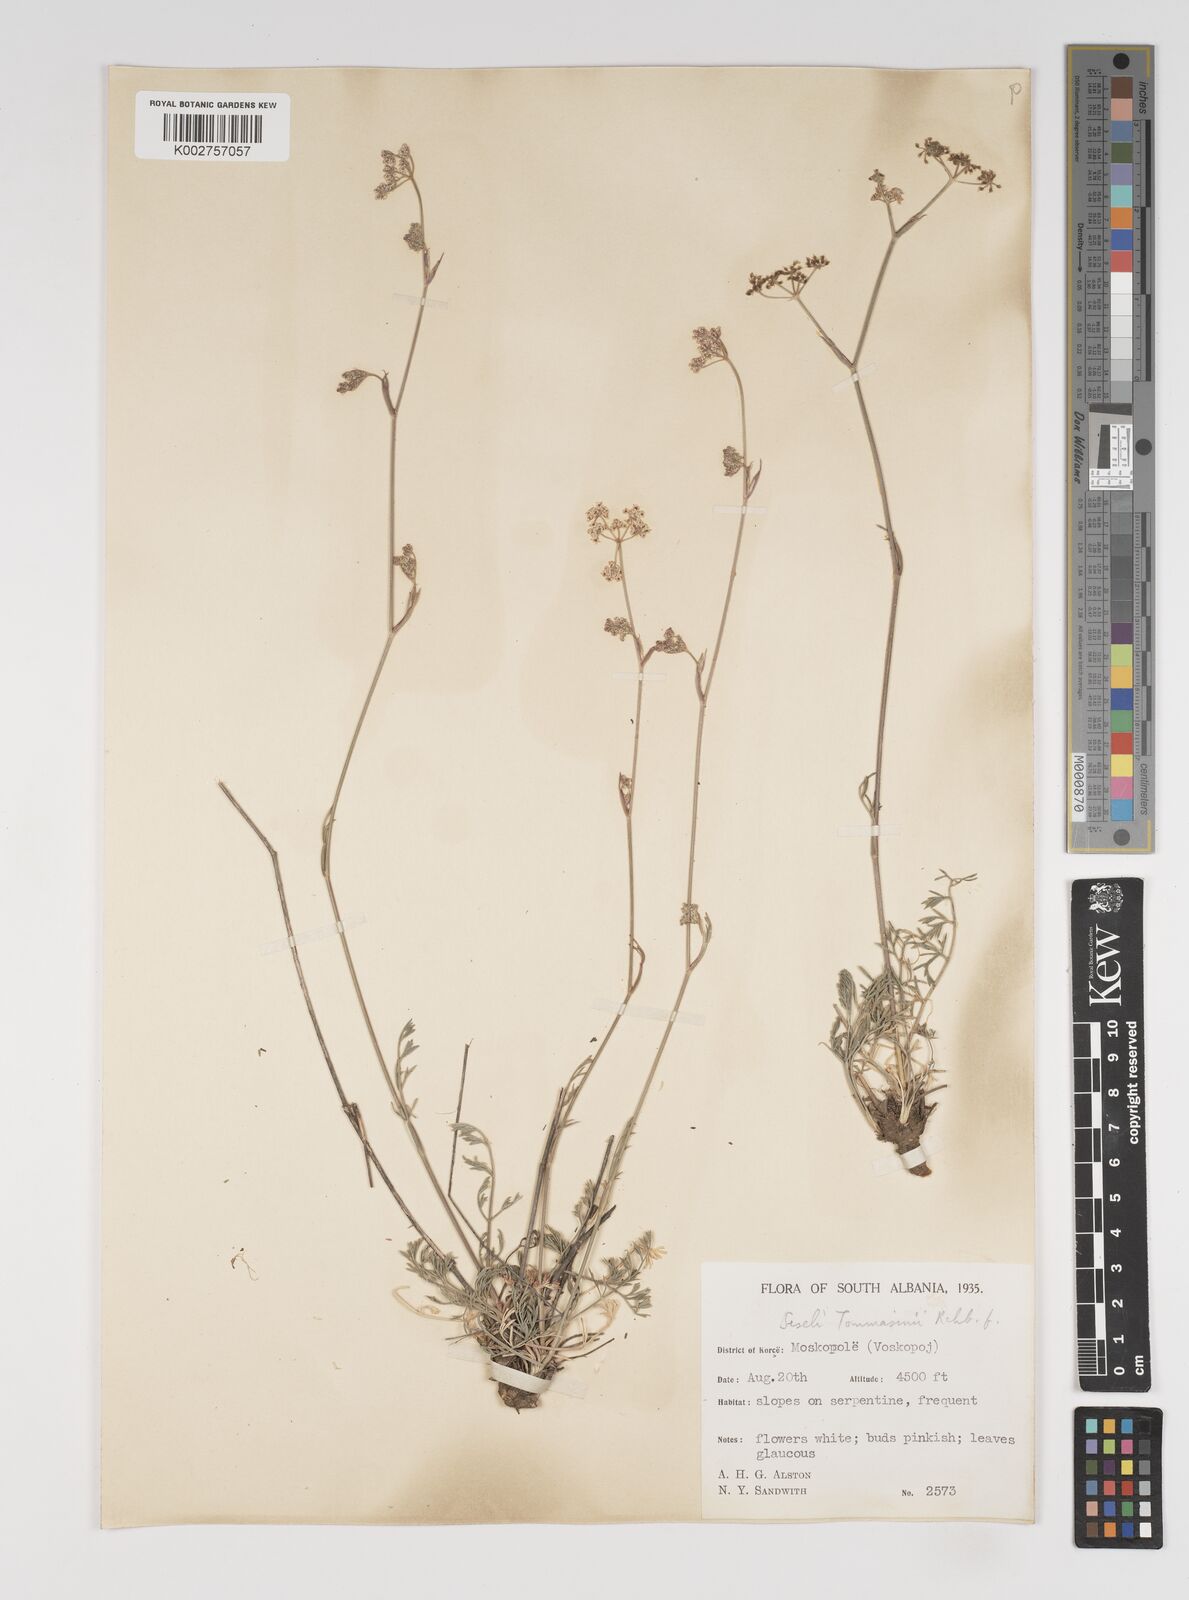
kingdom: Plantae
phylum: Tracheophyta
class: Magnoliopsida
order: Apiales
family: Apiaceae
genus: Seseli
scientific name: Seseli montanum
